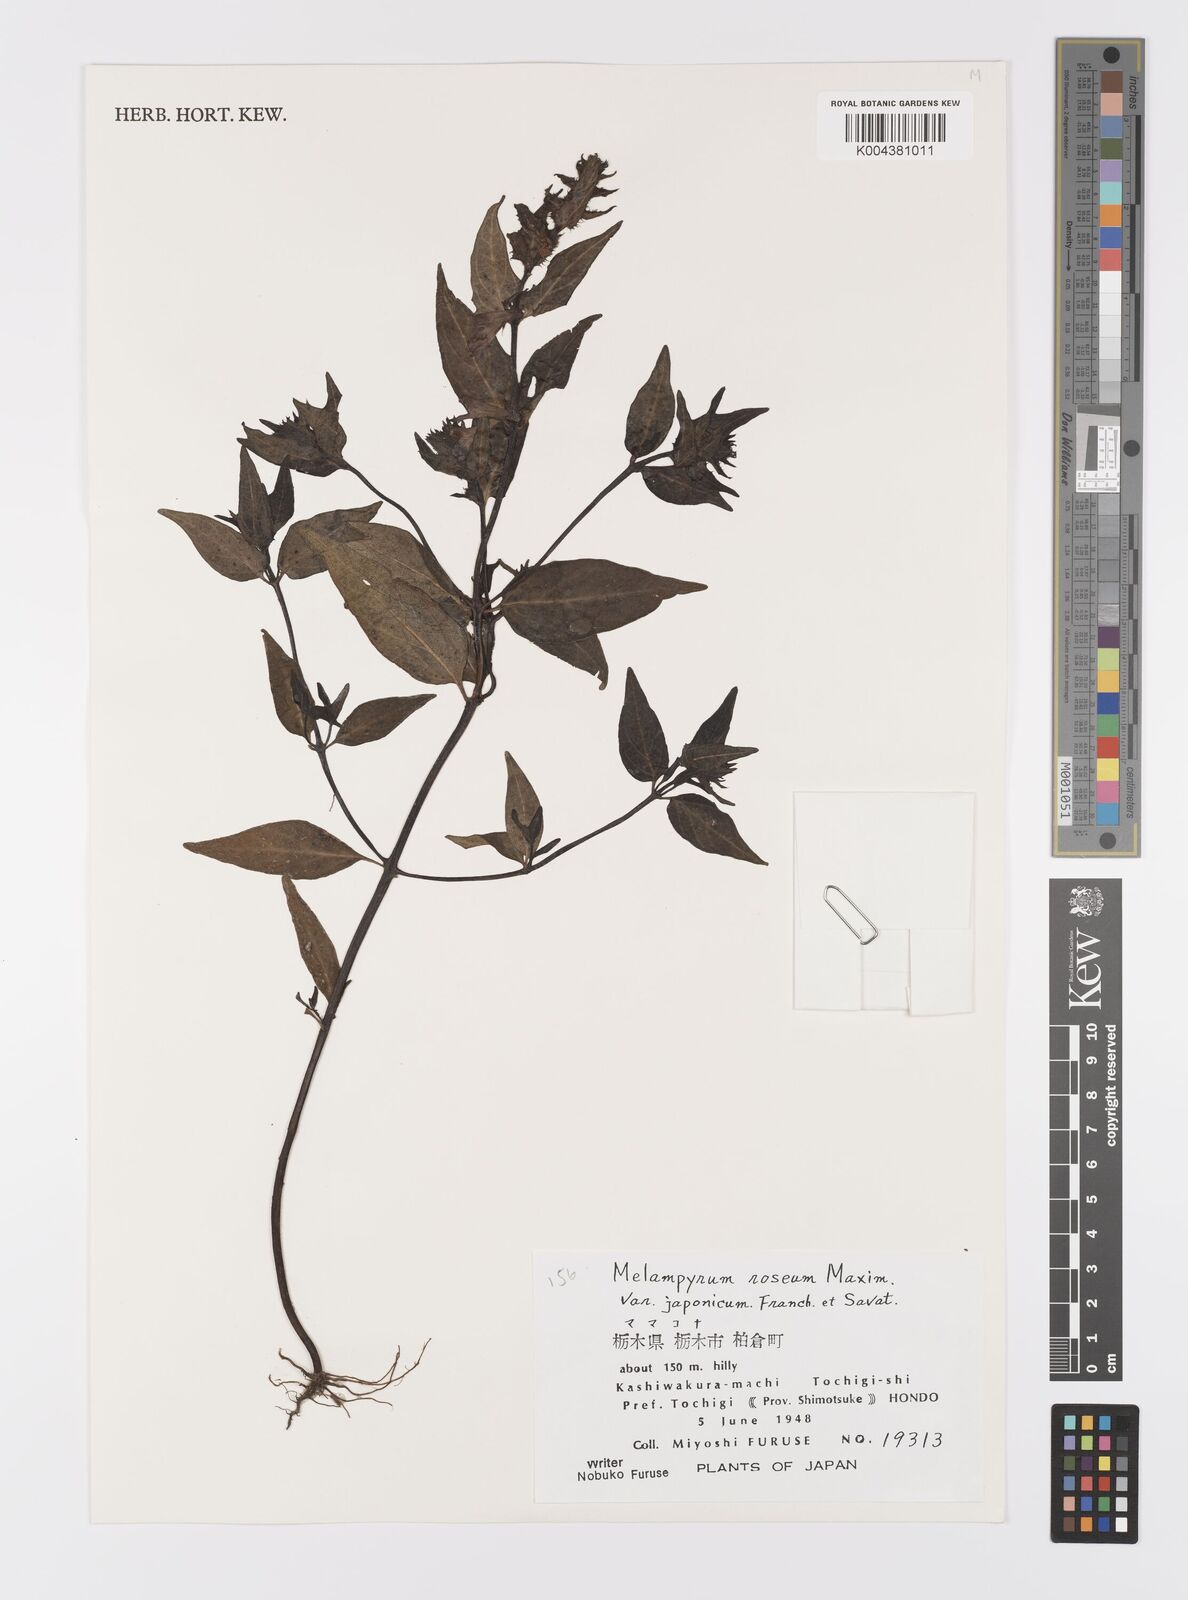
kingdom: Plantae
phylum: Tracheophyta
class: Magnoliopsida
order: Lamiales
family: Orobanchaceae
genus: Melampyrum
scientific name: Melampyrum roseum
